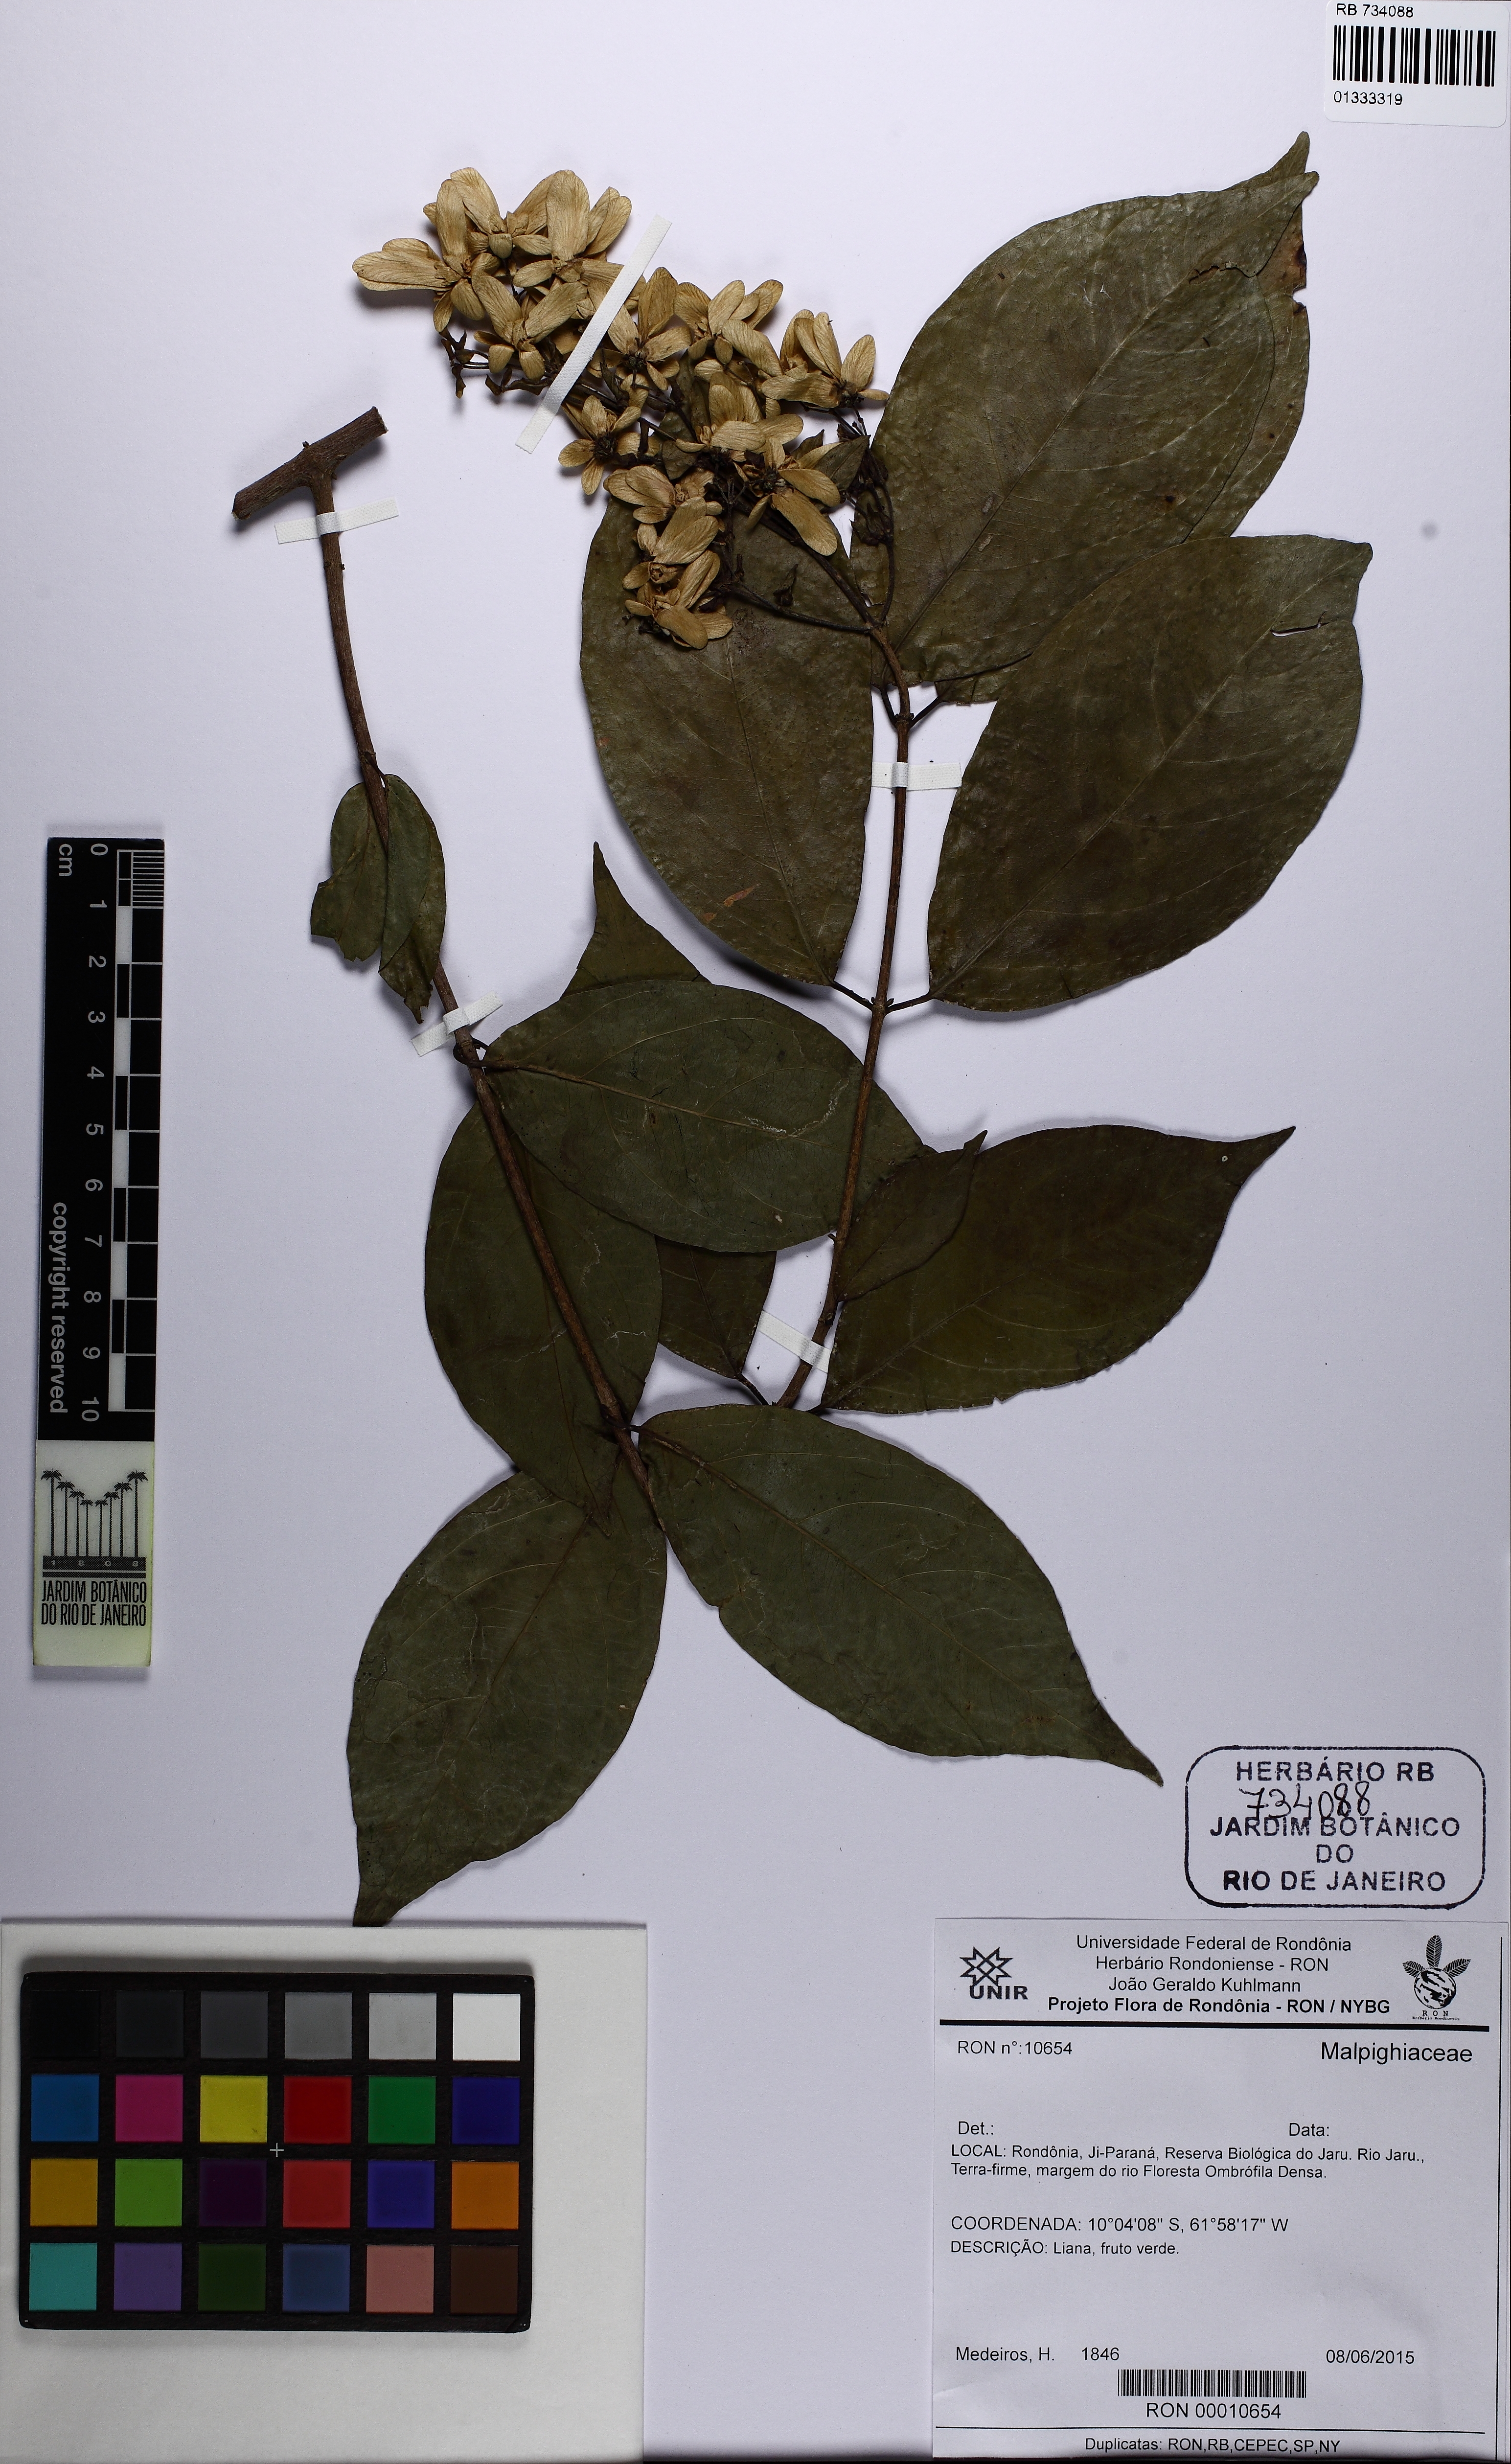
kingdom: Plantae
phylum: Tracheophyta
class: Magnoliopsida
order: Malpighiales
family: Malpighiaceae
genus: Tetrapterys
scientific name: Tetrapterys
